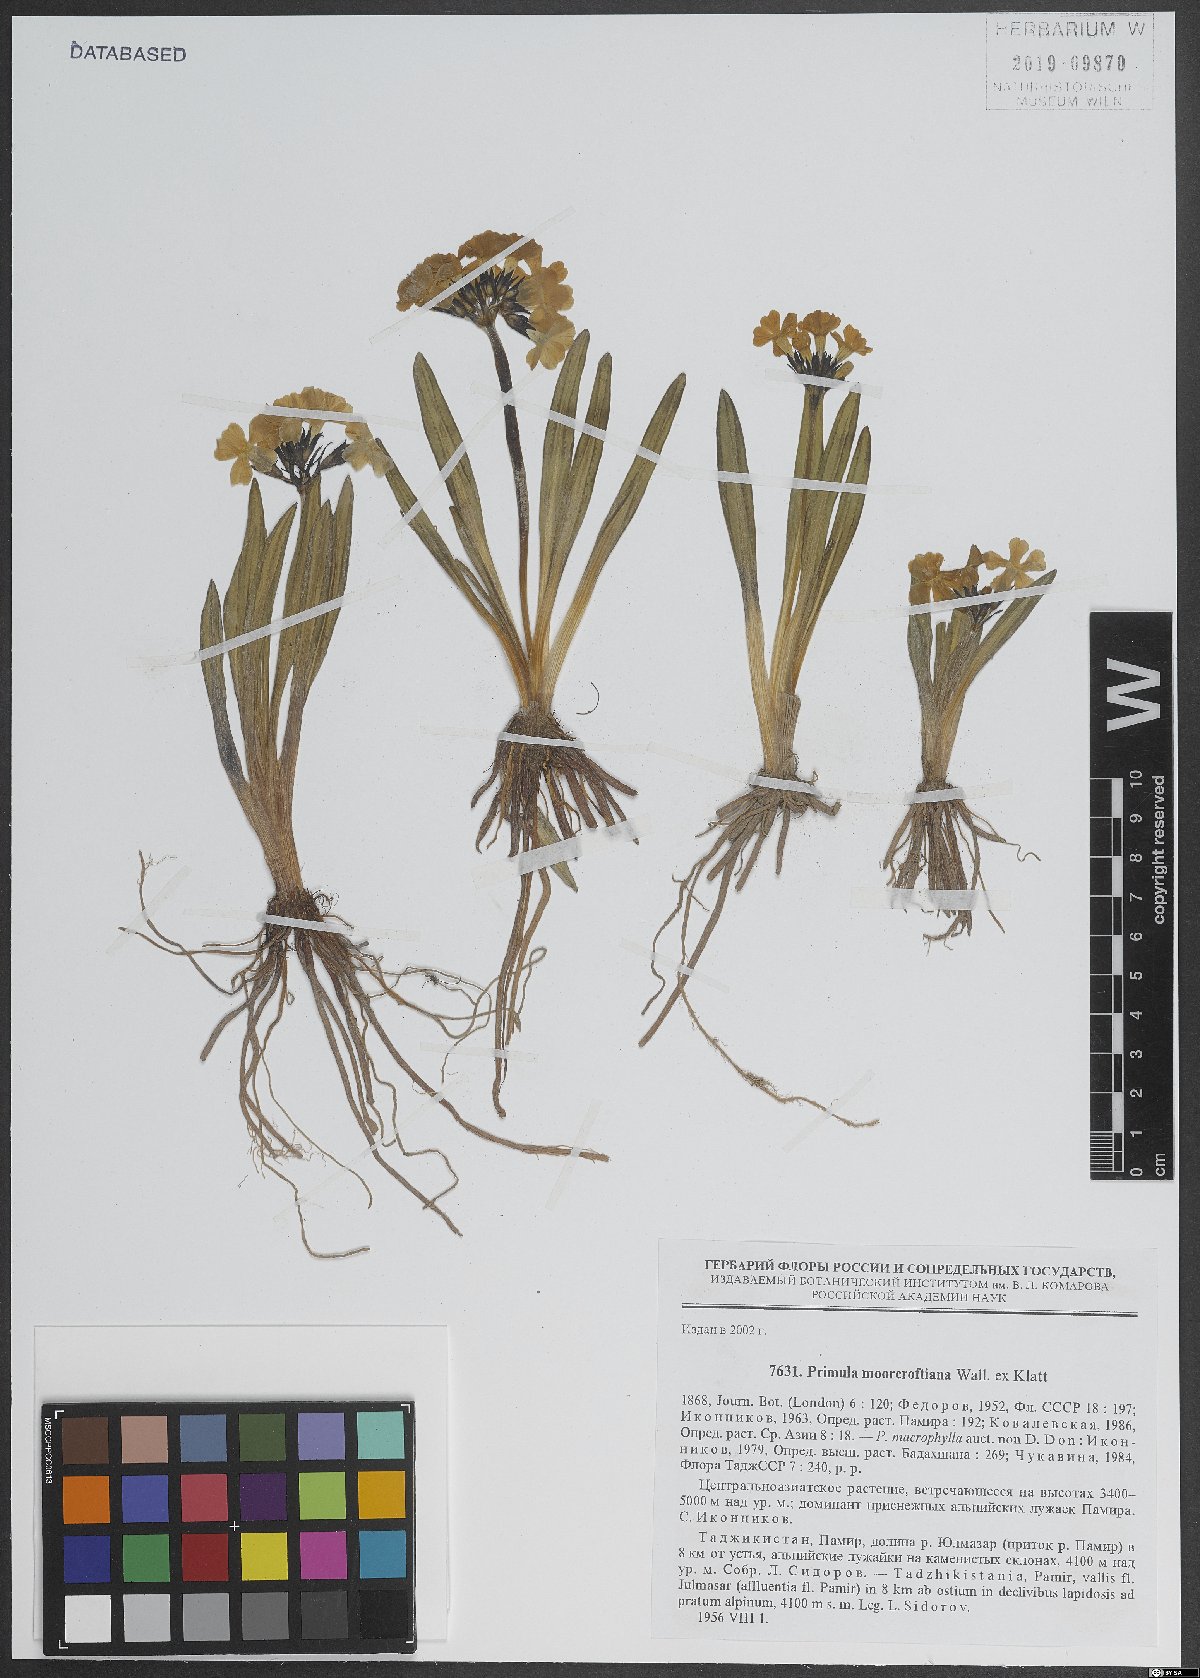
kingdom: Plantae
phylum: Tracheophyta
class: Magnoliopsida
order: Ericales
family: Primulaceae
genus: Primula
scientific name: Primula macrophylla
